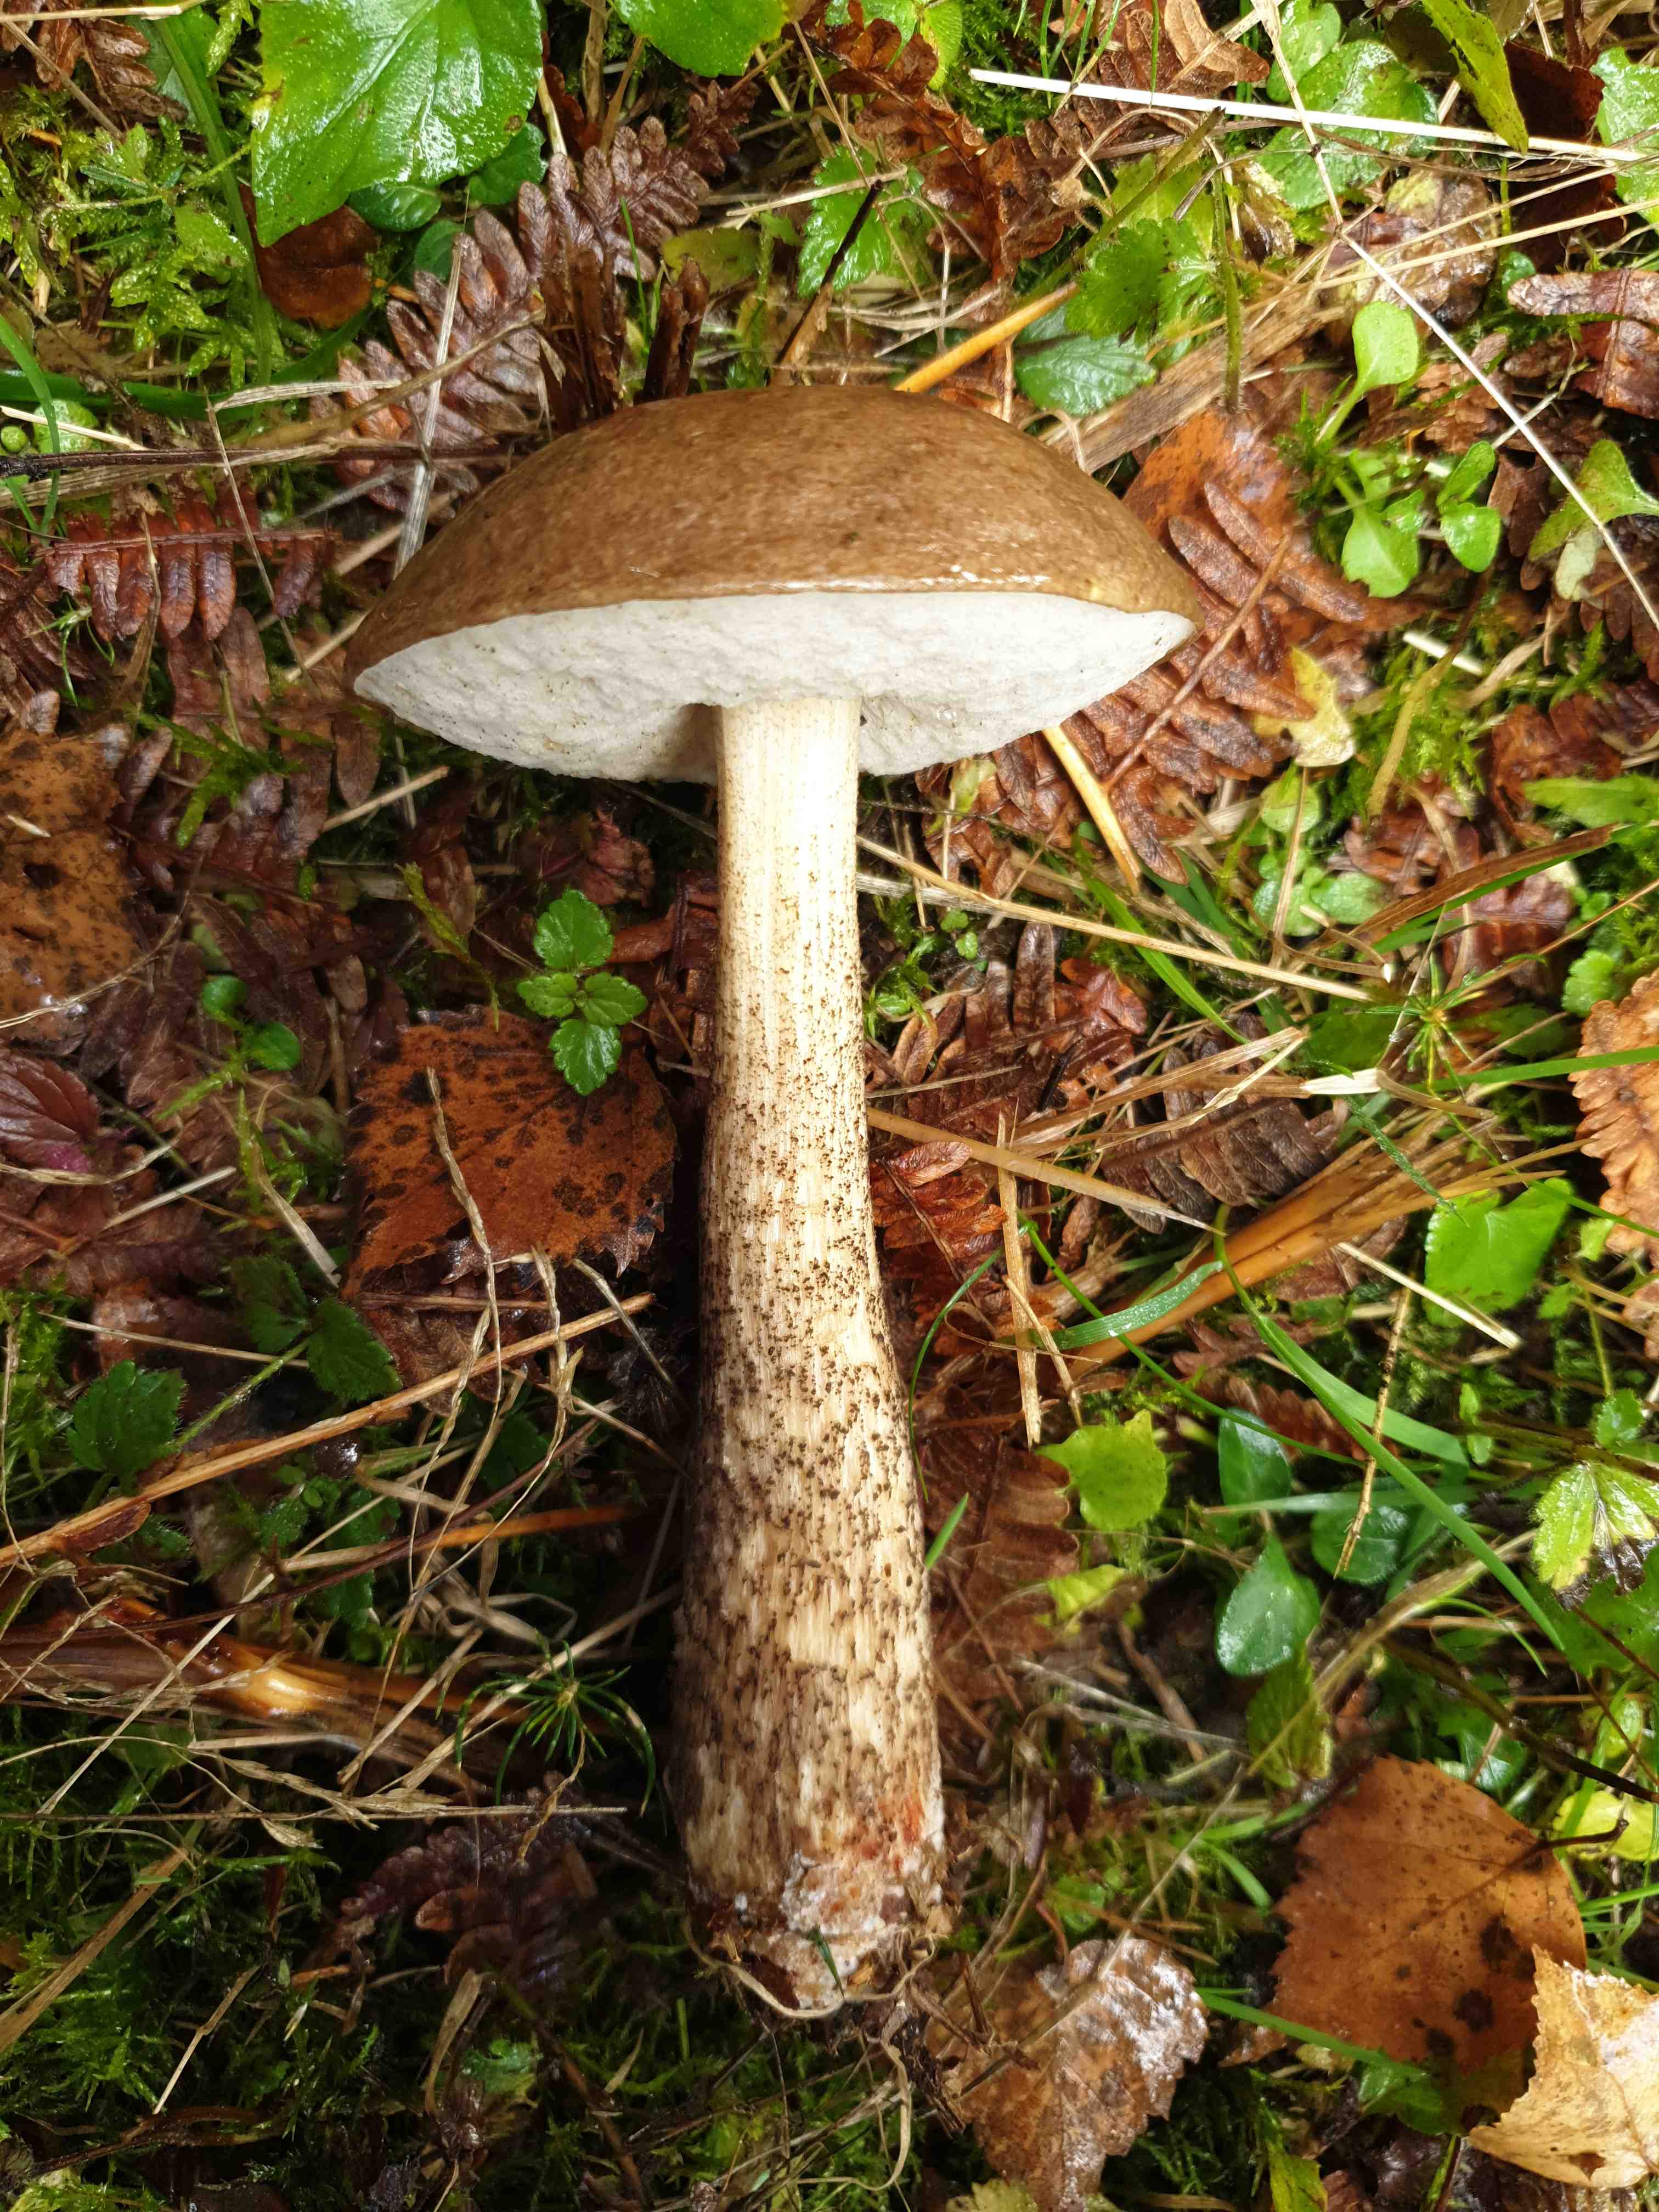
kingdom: Fungi
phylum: Basidiomycota
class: Agaricomycetes
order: Boletales
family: Boletaceae
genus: Leccinum
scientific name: Leccinum scabrum
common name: brun skælrørhat
